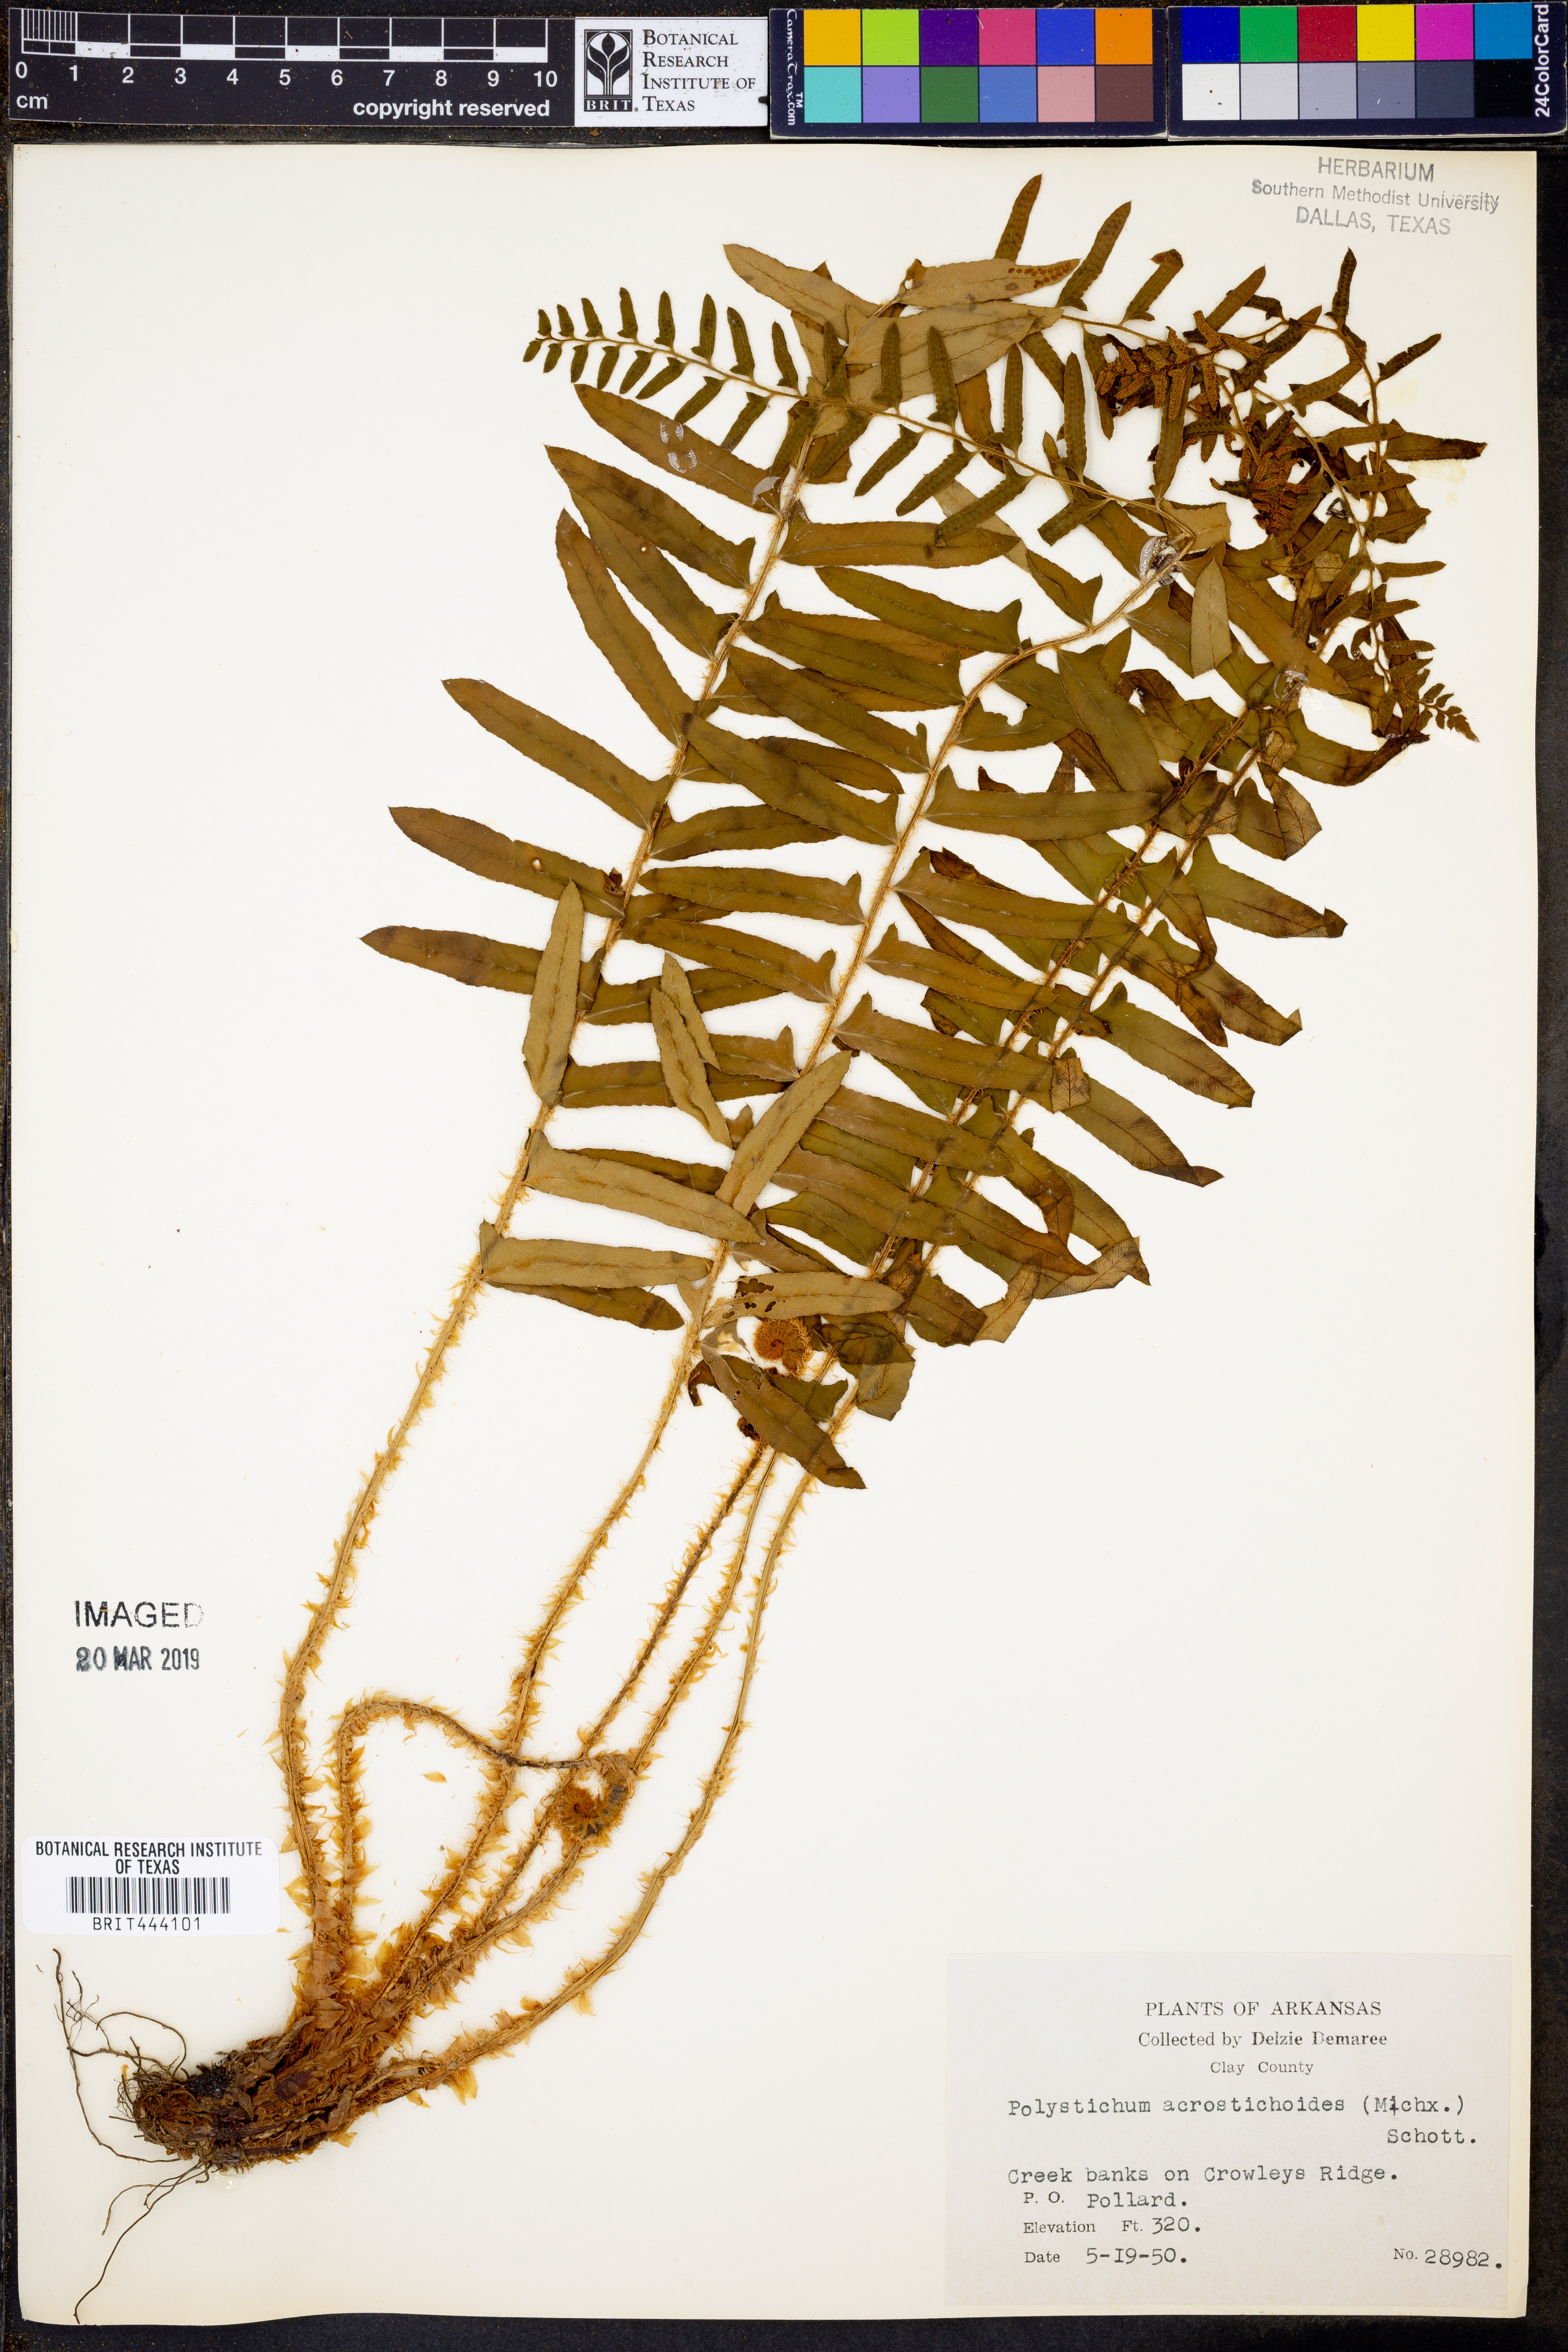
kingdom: Plantae
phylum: Tracheophyta
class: Polypodiopsida
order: Polypodiales
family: Dryopteridaceae
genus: Polystichum
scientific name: Polystichum acrostichoides
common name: Christmas fern
